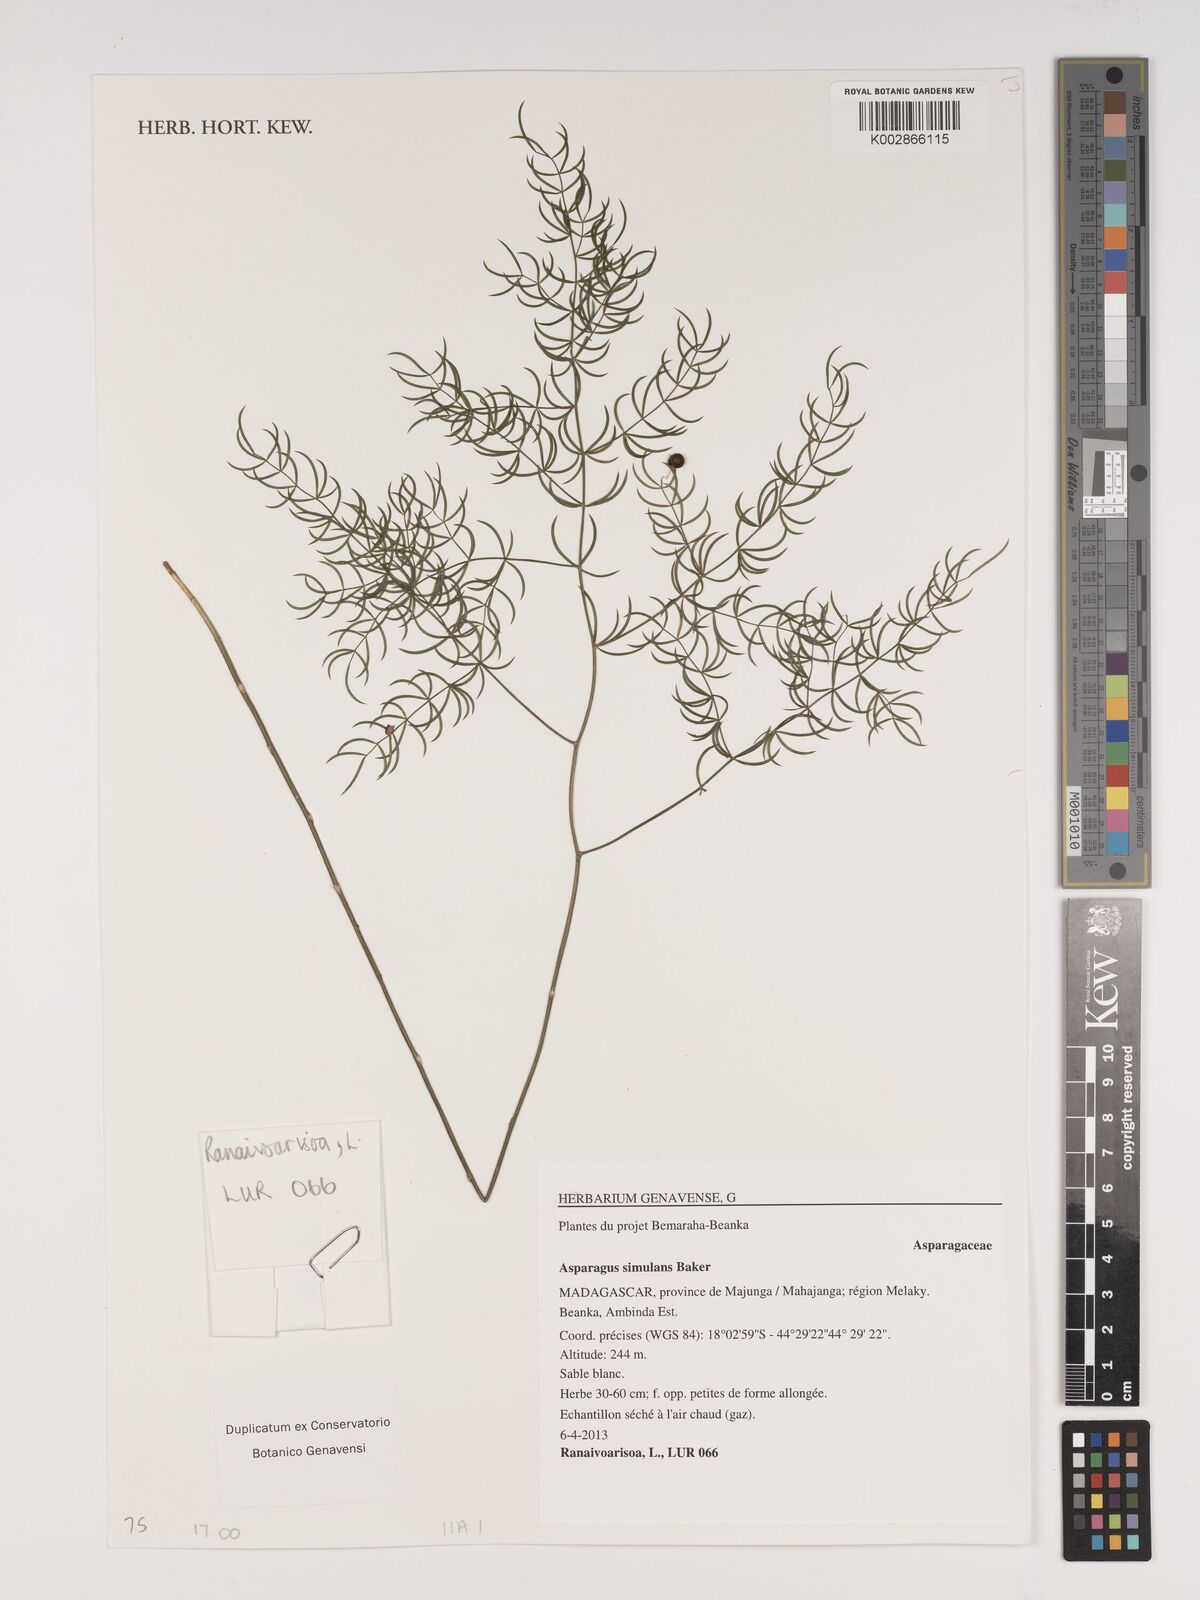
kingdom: Plantae
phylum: Tracheophyta
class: Liliopsida
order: Asparagales
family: Asparagaceae
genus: Asparagus
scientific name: Asparagus simulans
